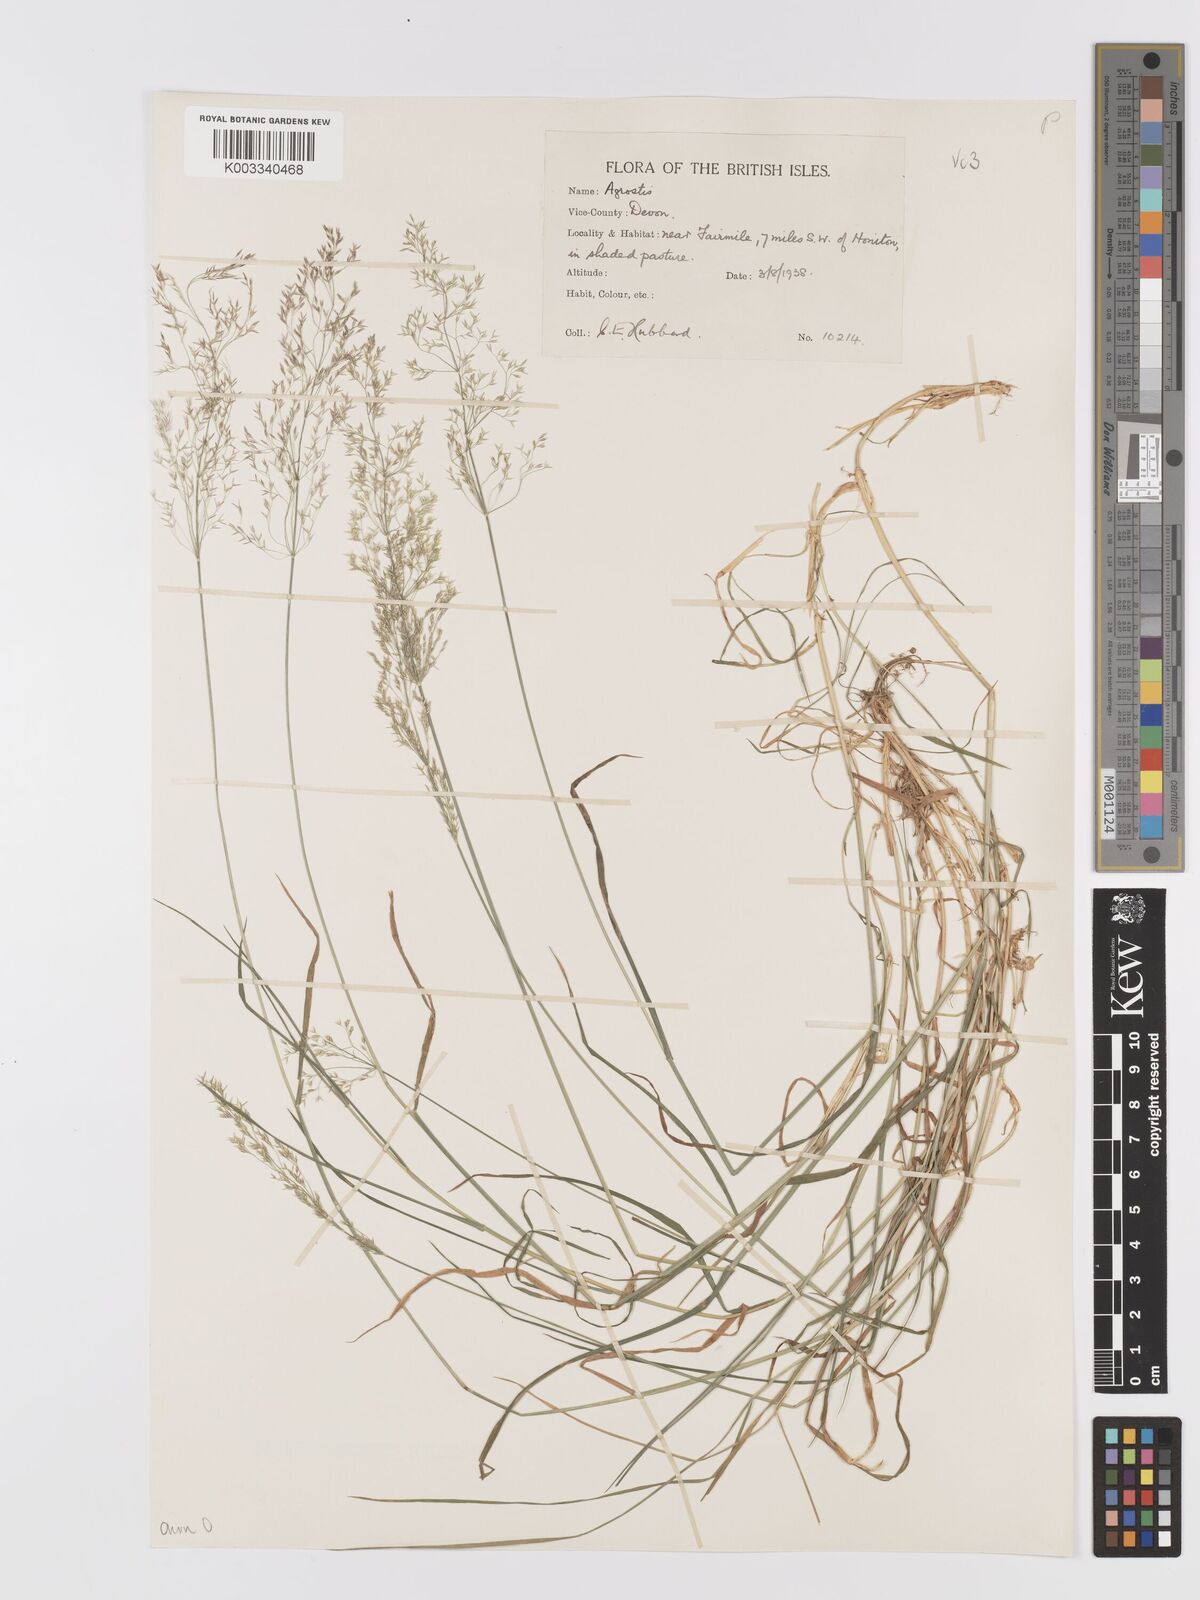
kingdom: Plantae
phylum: Tracheophyta
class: Liliopsida
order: Poales
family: Poaceae
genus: Agrostis
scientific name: Agrostis capillaris
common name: Colonial bentgrass
